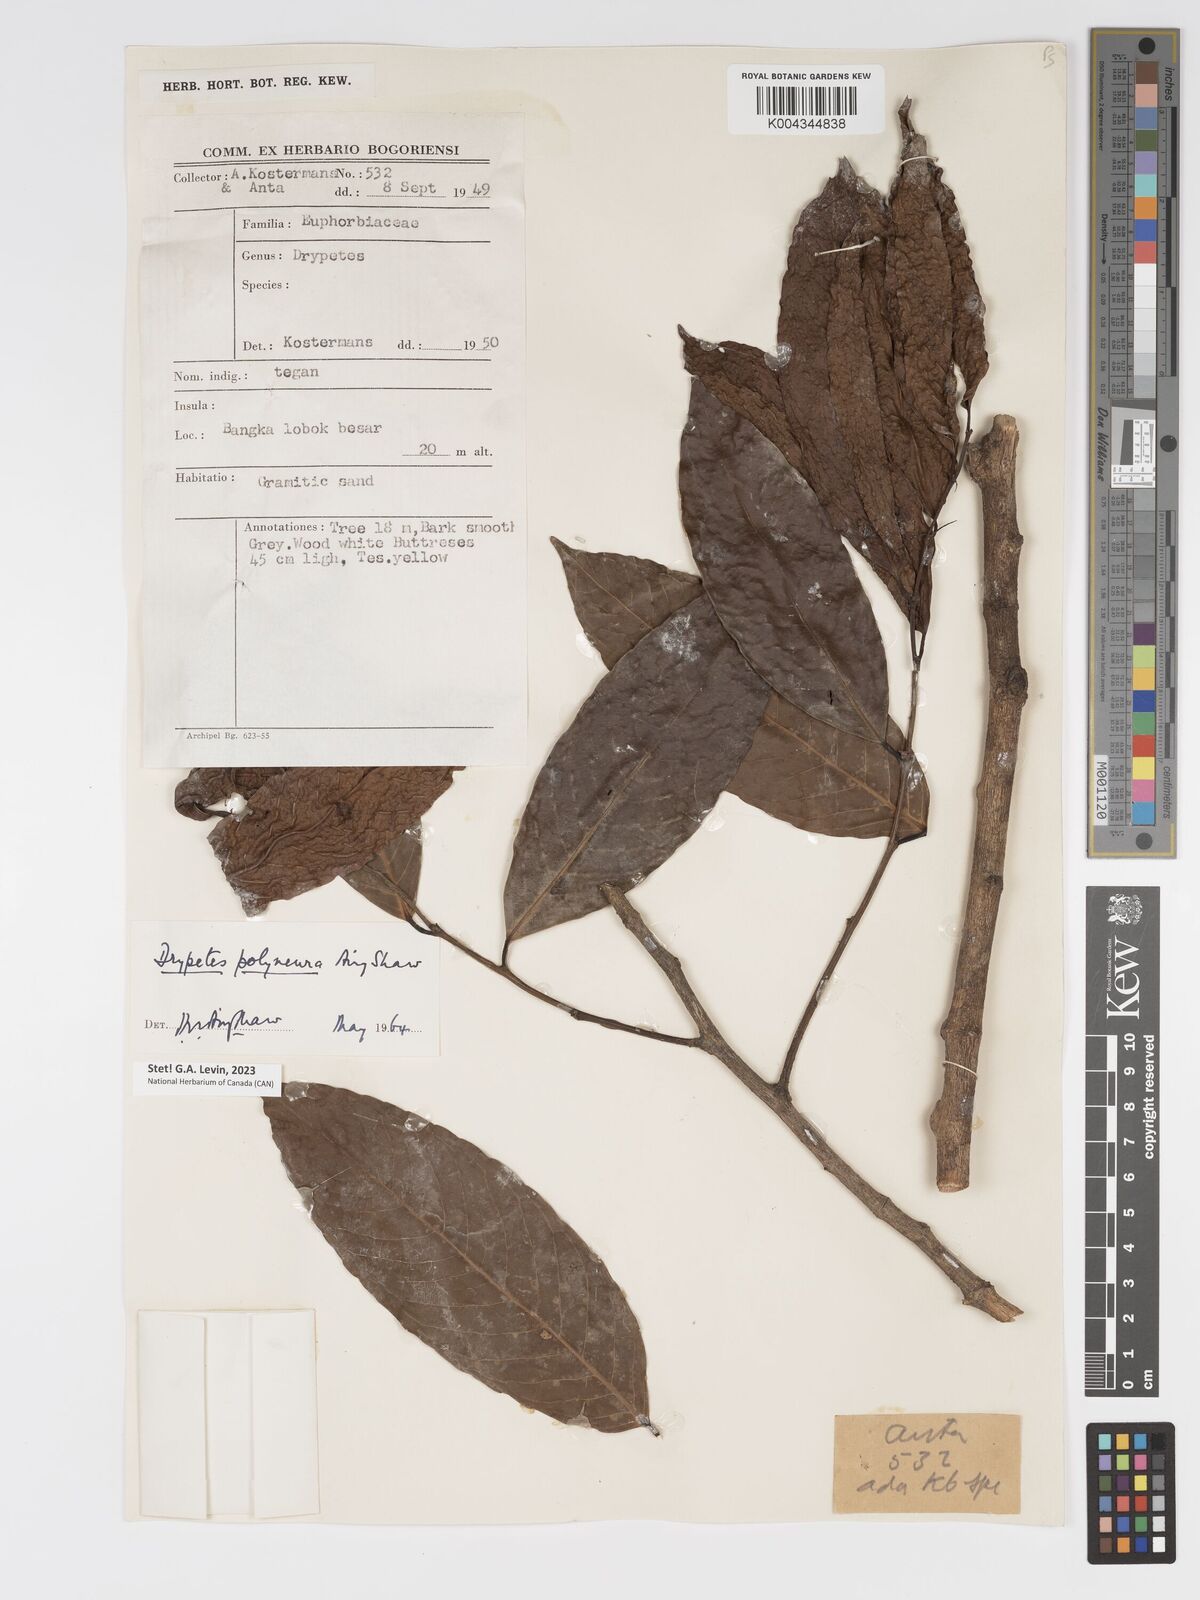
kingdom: Plantae
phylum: Tracheophyta
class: Magnoliopsida
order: Malpighiales
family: Putranjivaceae
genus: Drypetes
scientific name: Drypetes polyneura
